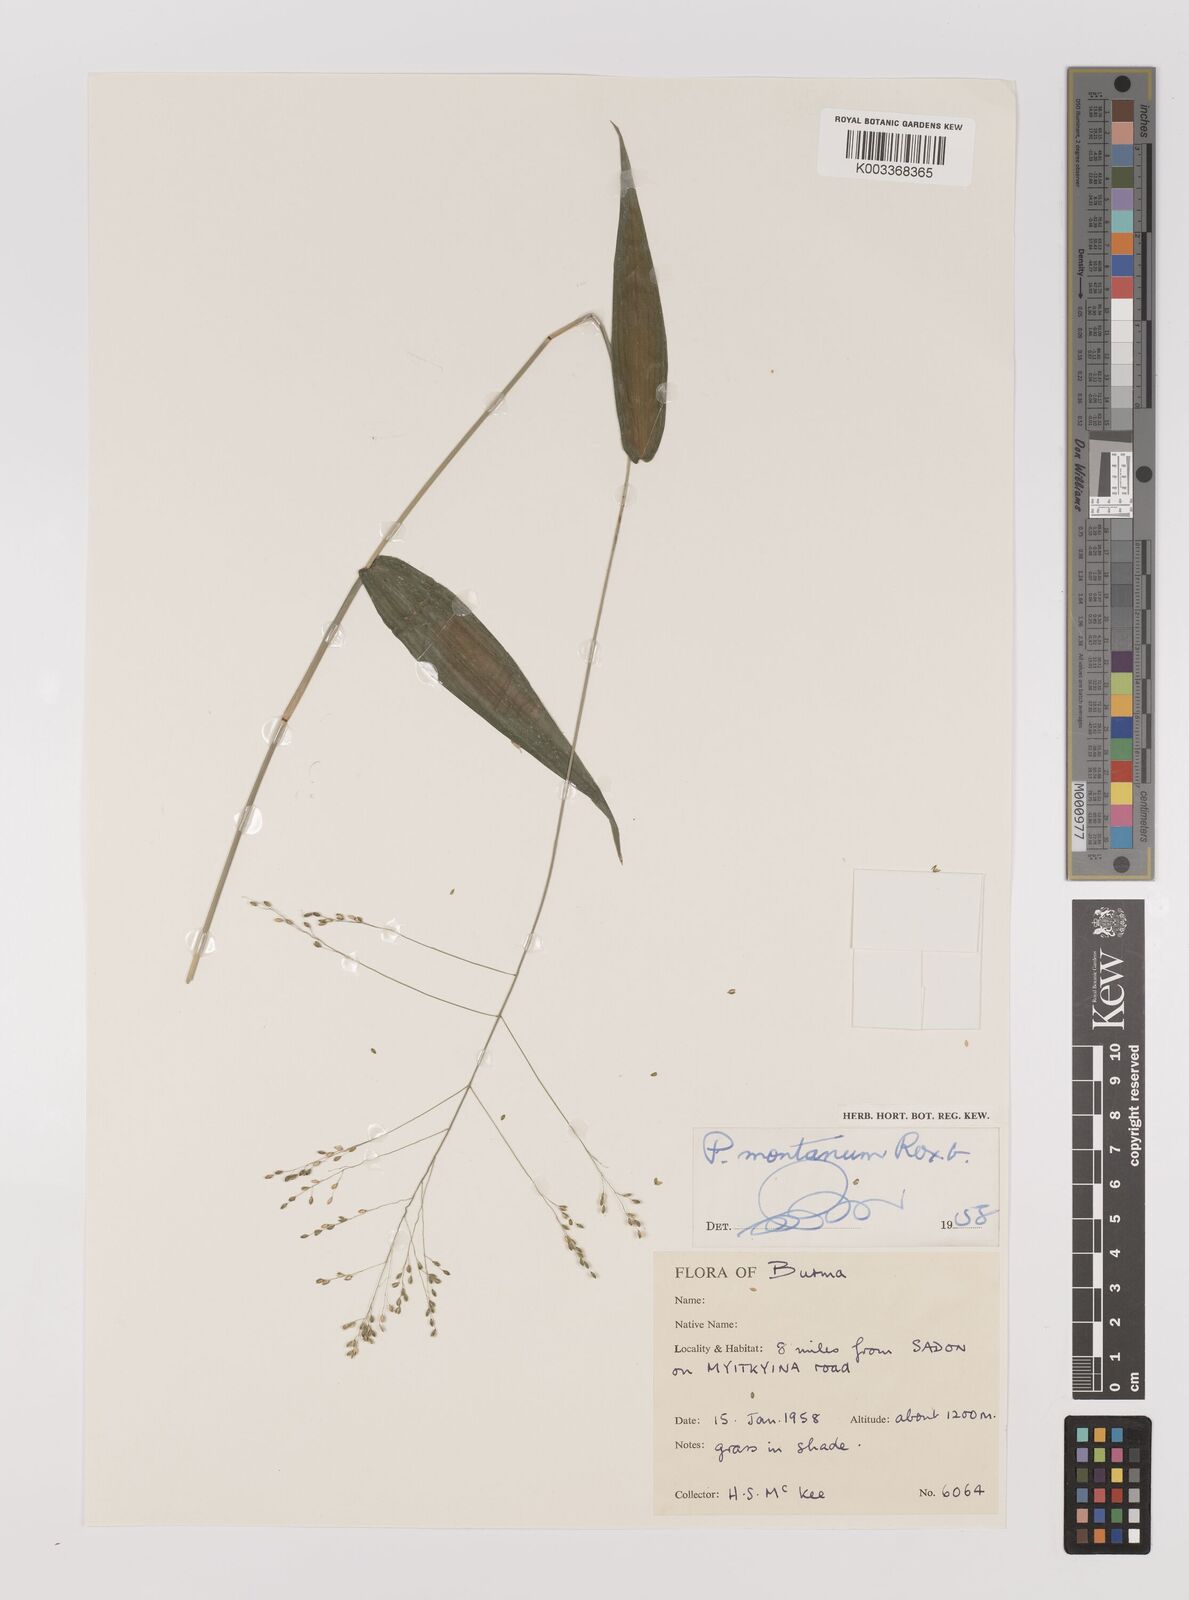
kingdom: Plantae
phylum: Tracheophyta
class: Liliopsida
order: Poales
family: Poaceae
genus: Panicum
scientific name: Panicum notatum
